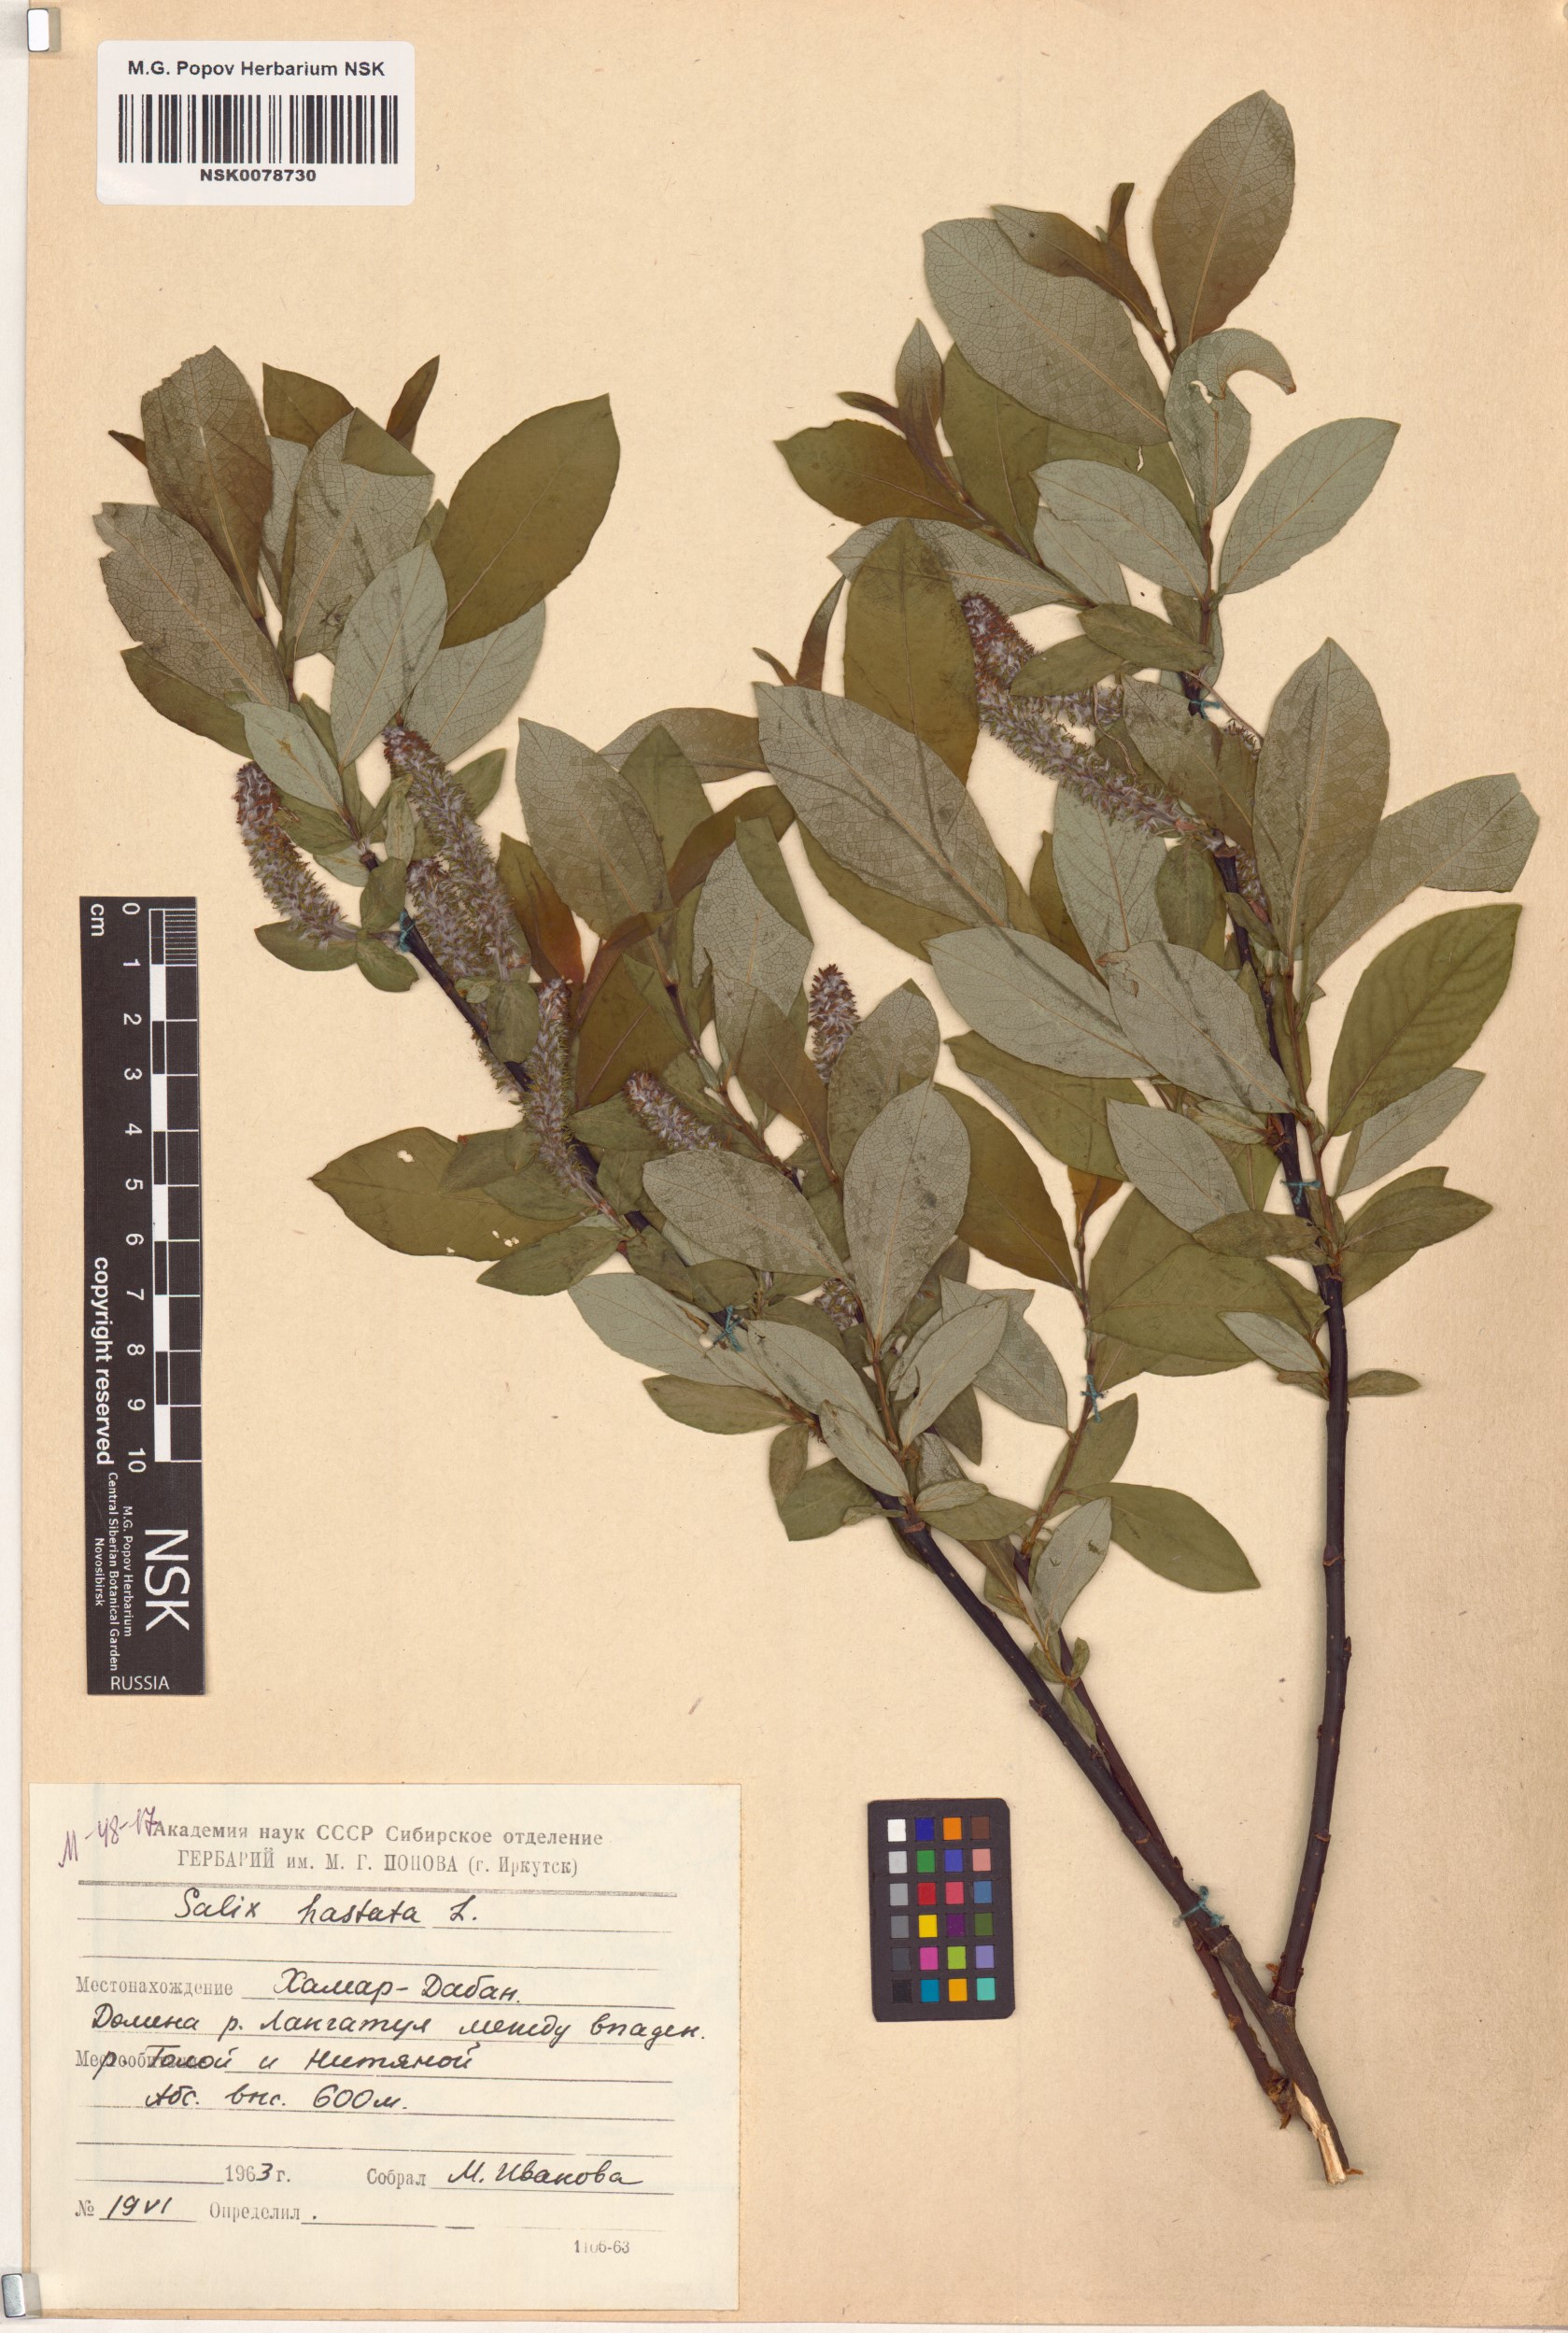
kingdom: Plantae
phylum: Tracheophyta
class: Magnoliopsida
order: Malpighiales
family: Salicaceae
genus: Salix
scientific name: Salix hastata
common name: Halberd willow
